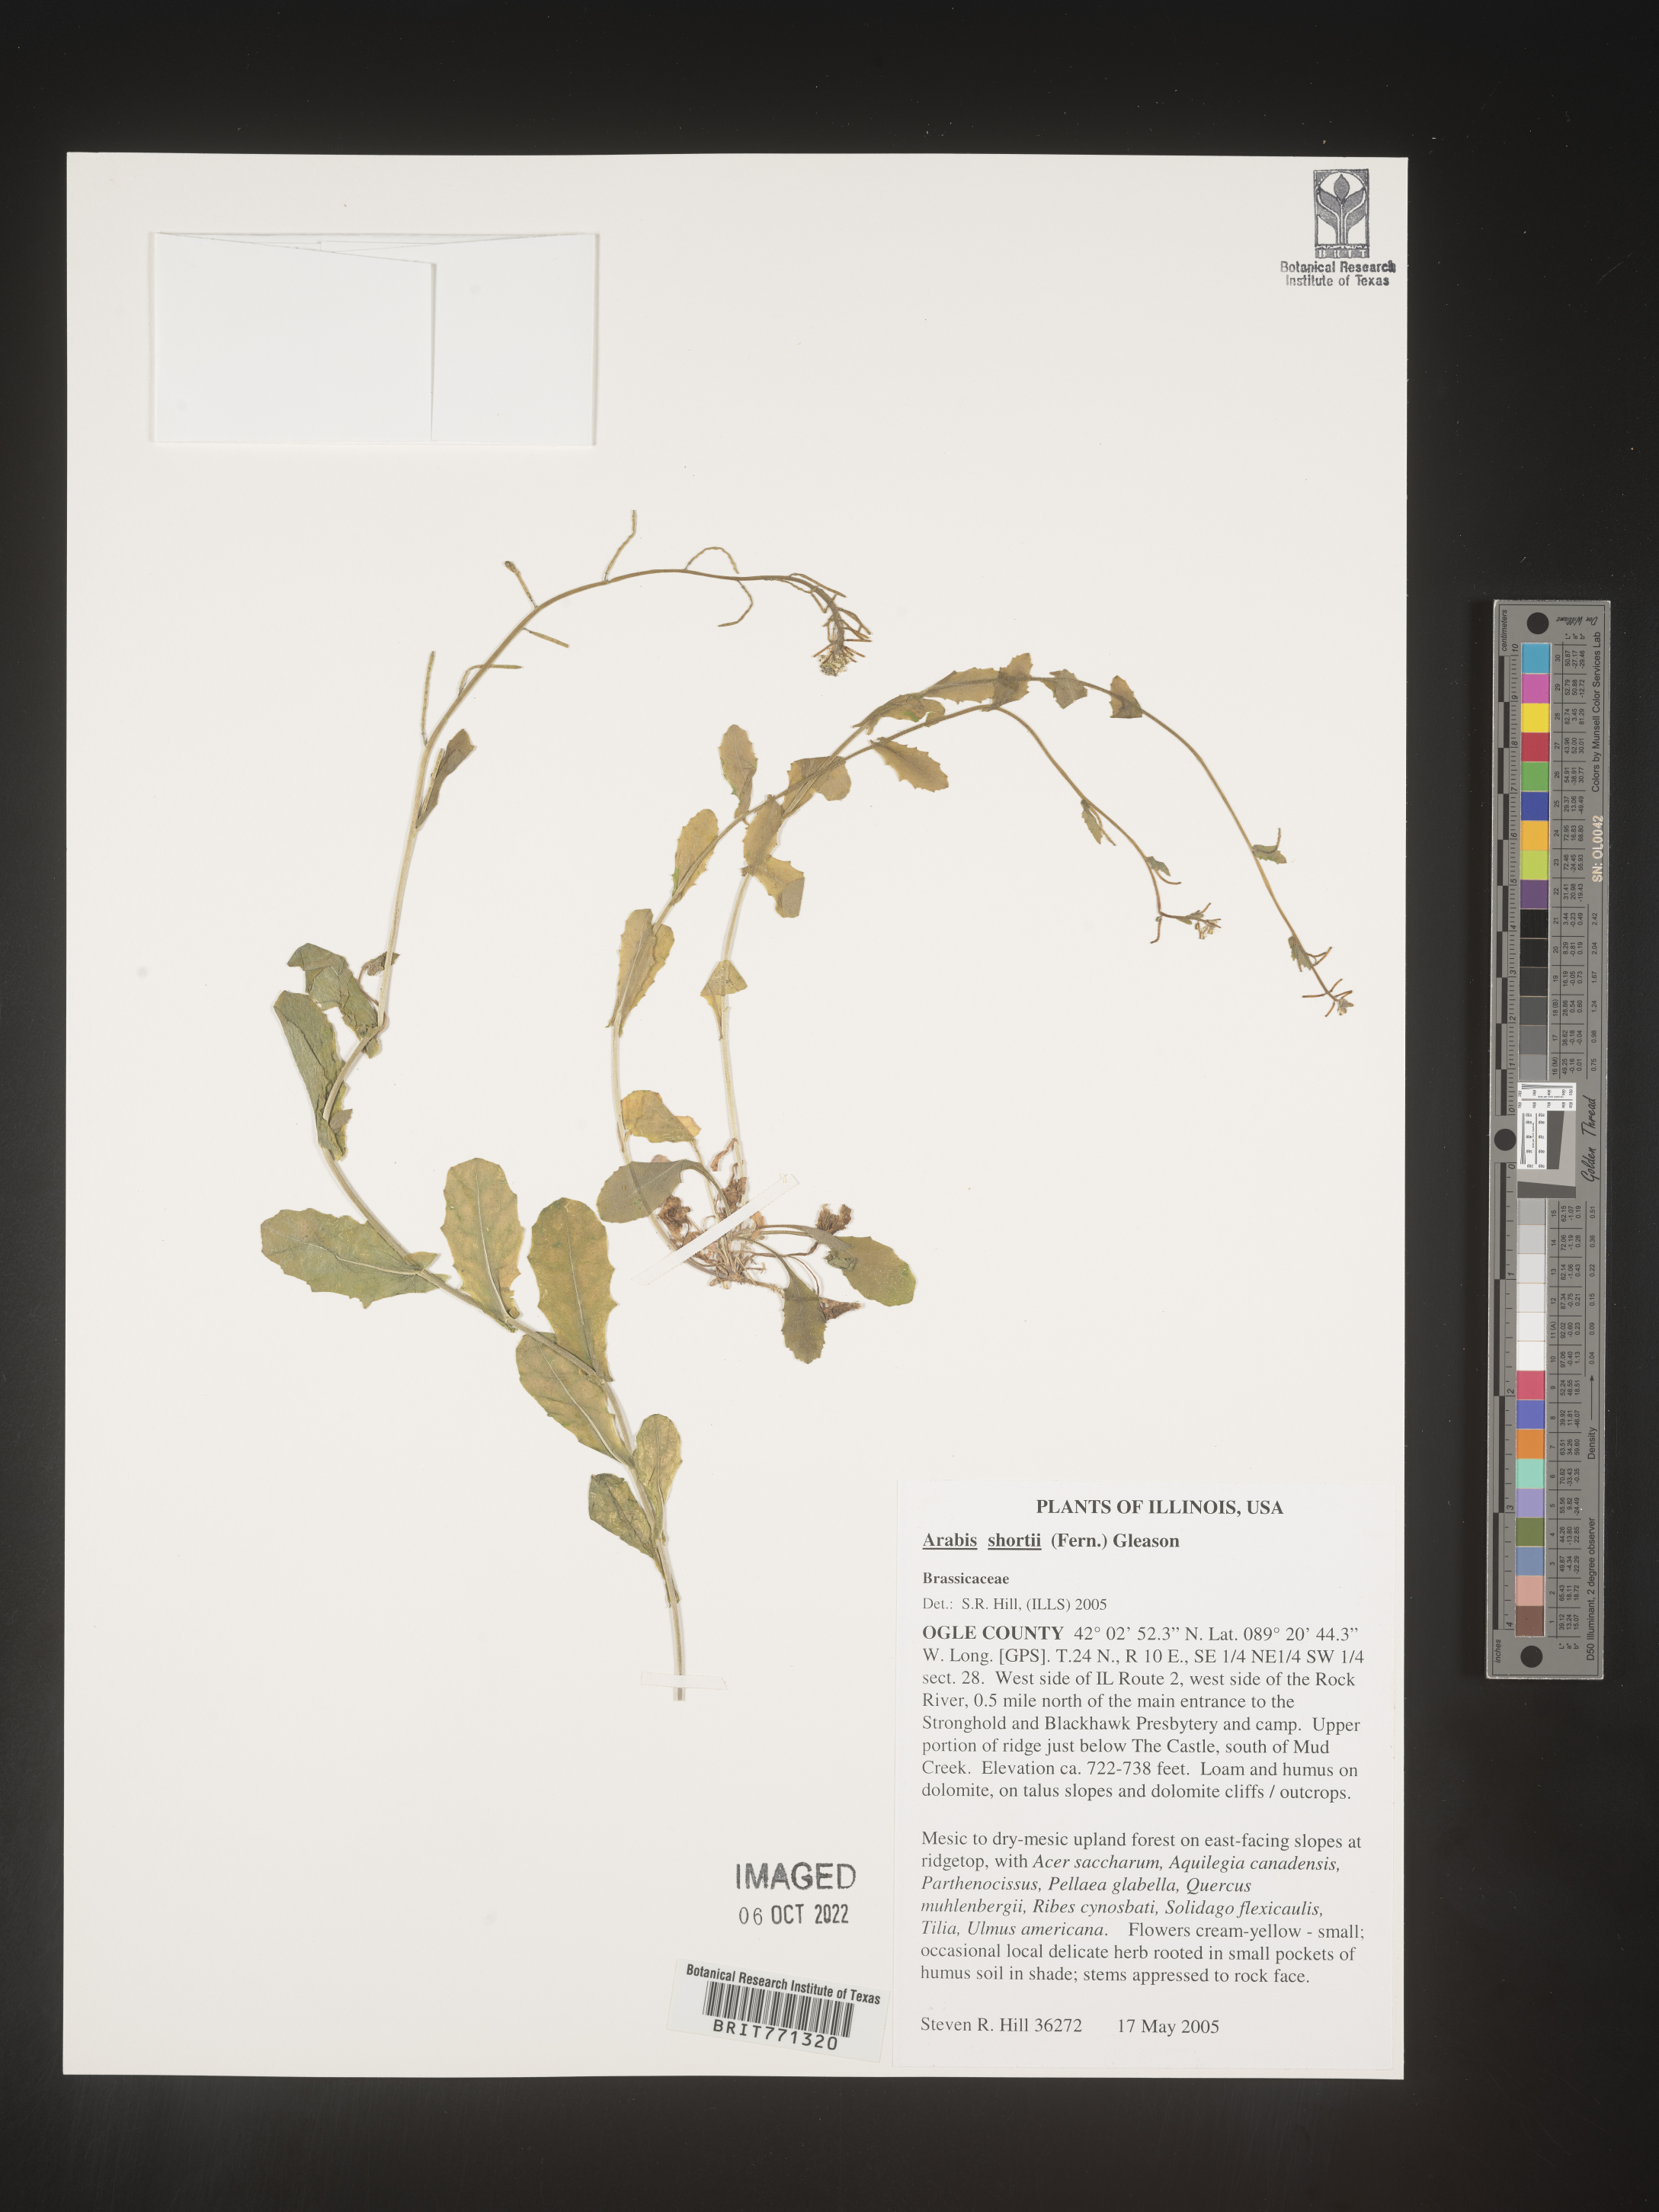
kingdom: Plantae
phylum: Tracheophyta
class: Magnoliopsida
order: Brassicales
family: Brassicaceae
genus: Arabis
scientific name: Arabis
